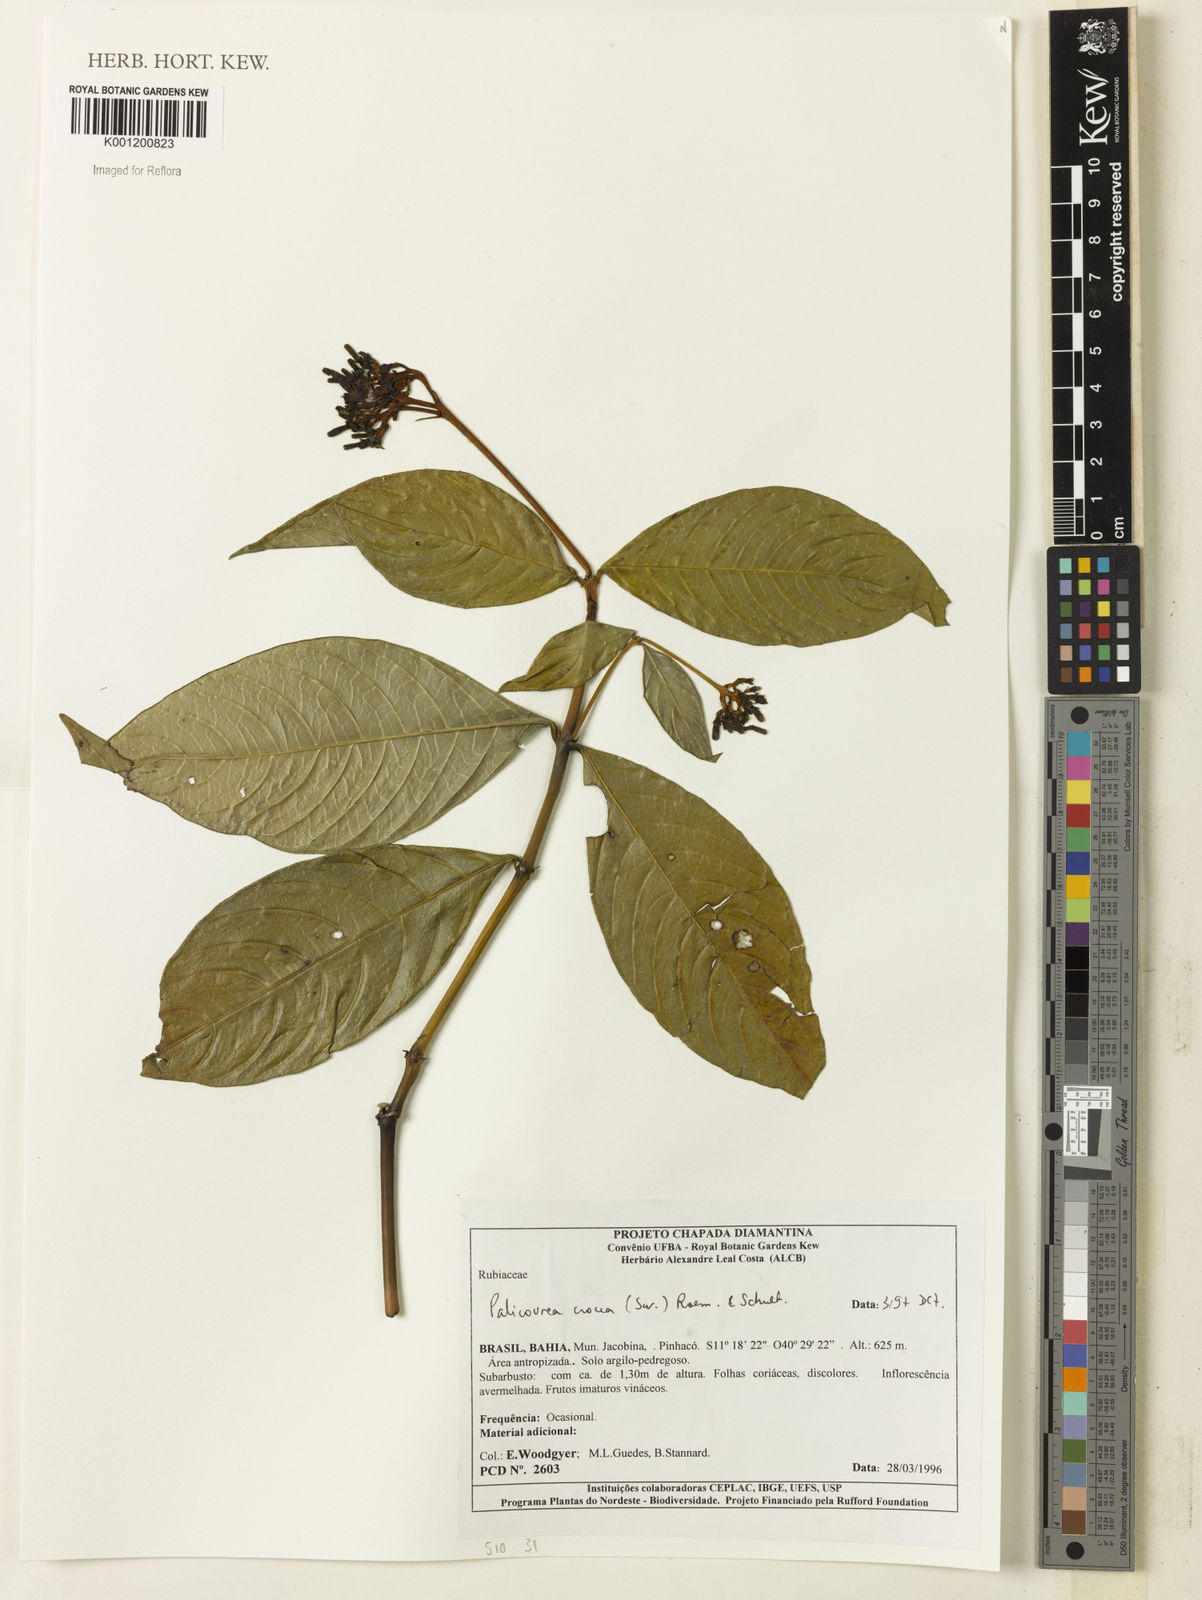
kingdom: Plantae
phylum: Tracheophyta
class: Magnoliopsida
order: Gentianales
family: Rubiaceae
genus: Palicourea
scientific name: Palicourea crocea
